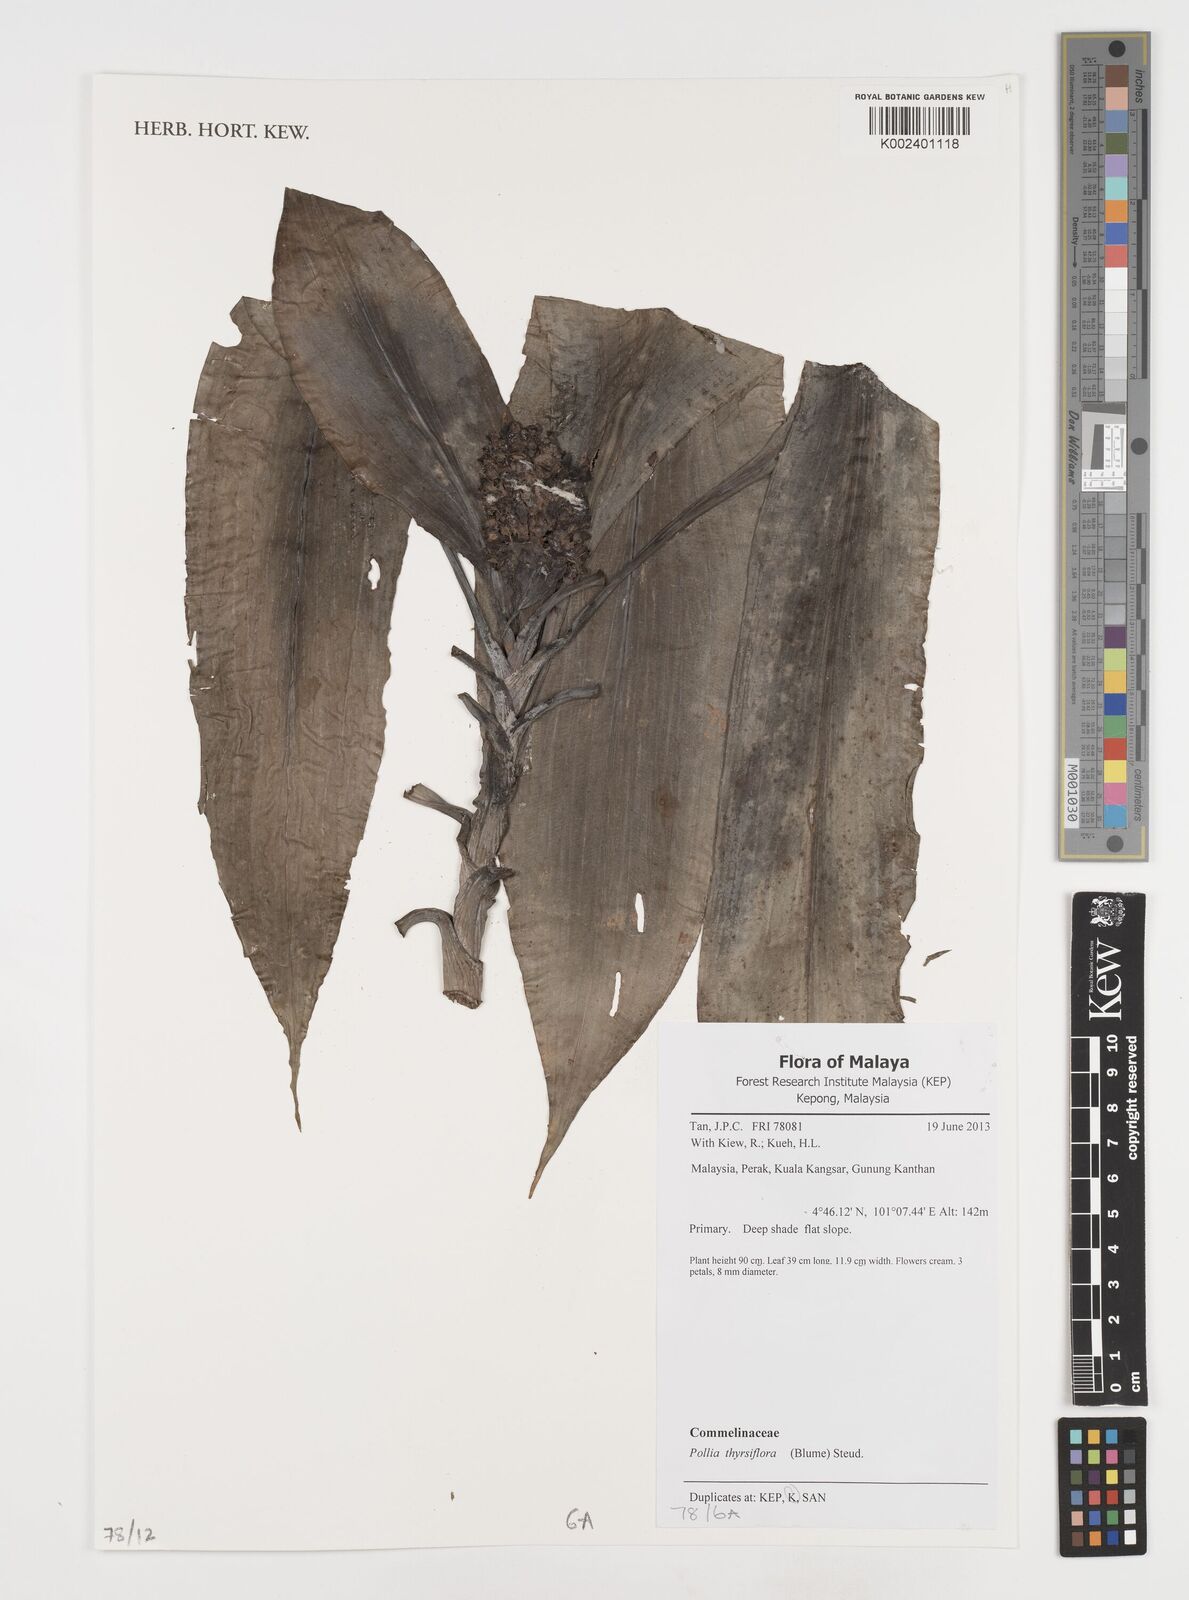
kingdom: Plantae
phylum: Tracheophyta
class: Liliopsida
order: Commelinales
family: Commelinaceae
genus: Pollia
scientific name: Pollia thyrsiflora
